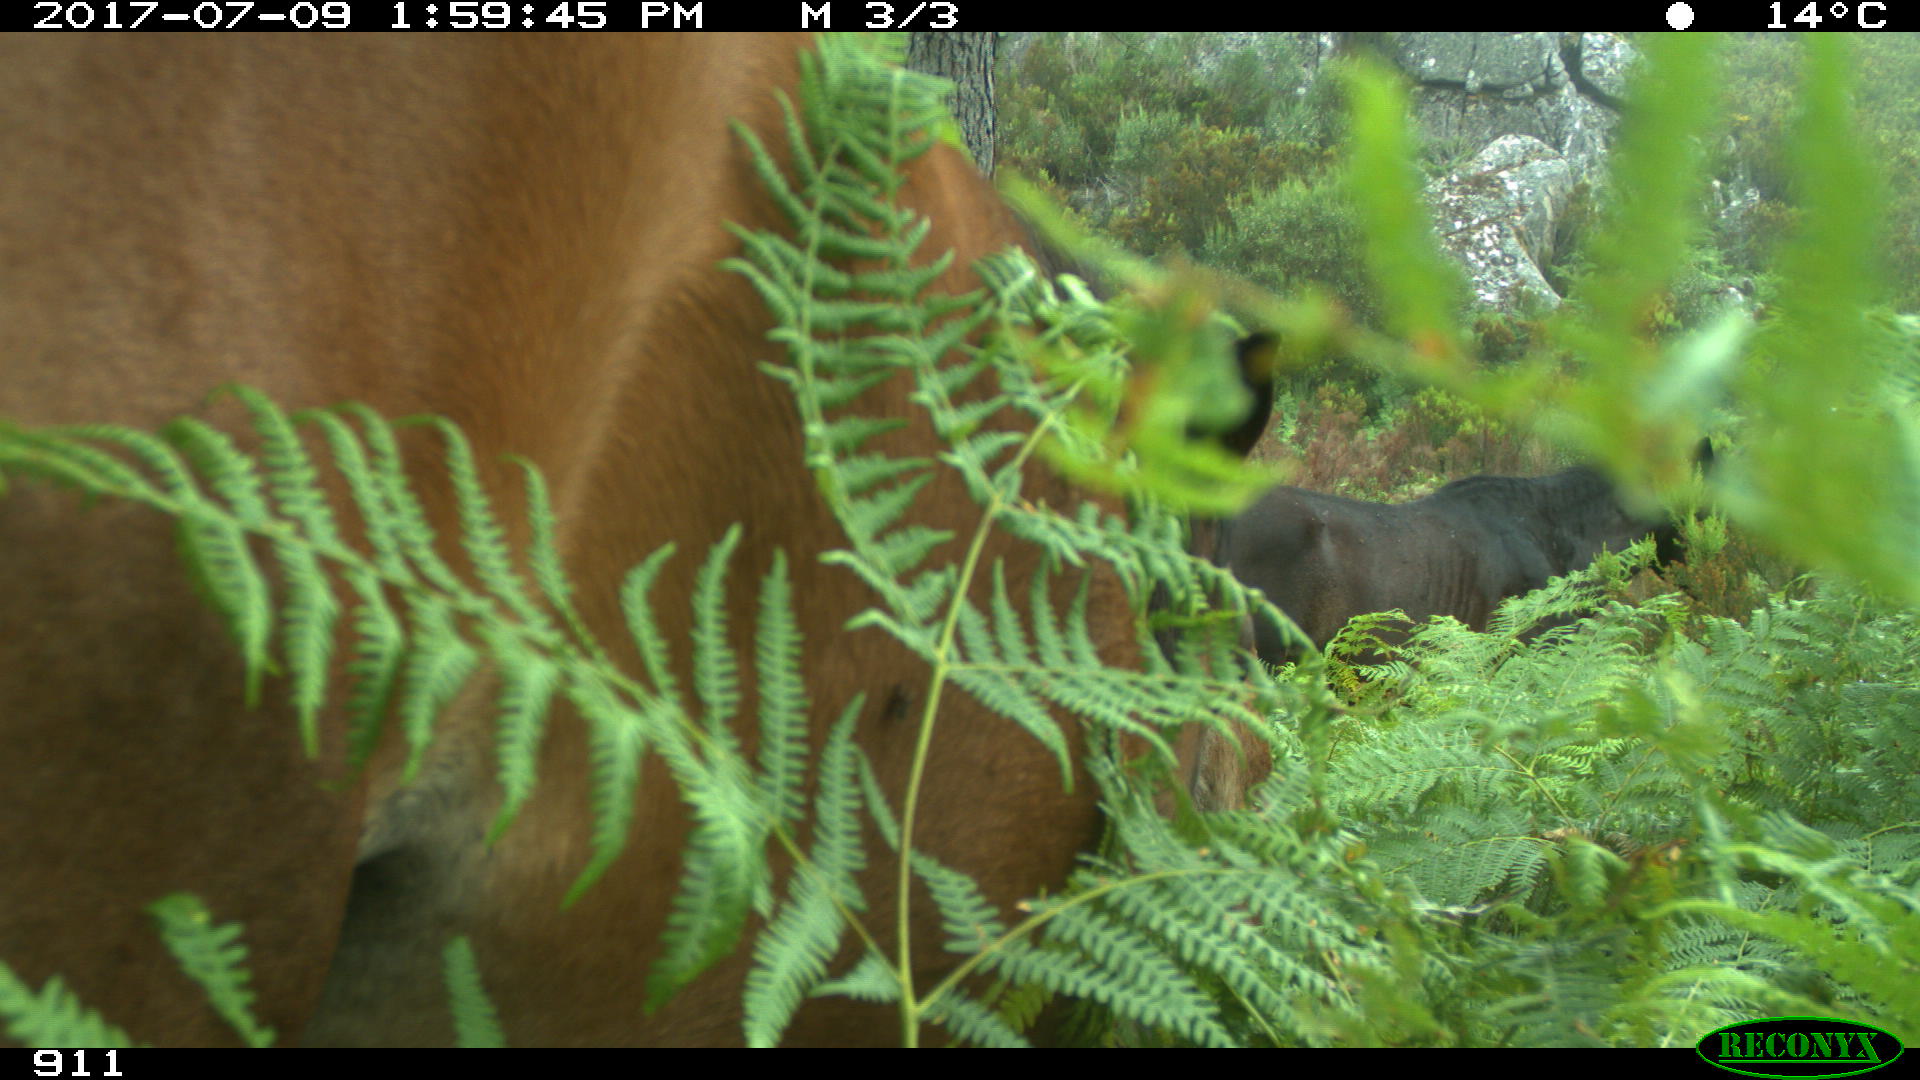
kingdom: Animalia
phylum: Chordata
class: Mammalia
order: Perissodactyla
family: Equidae
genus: Equus
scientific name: Equus caballus
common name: Horse
